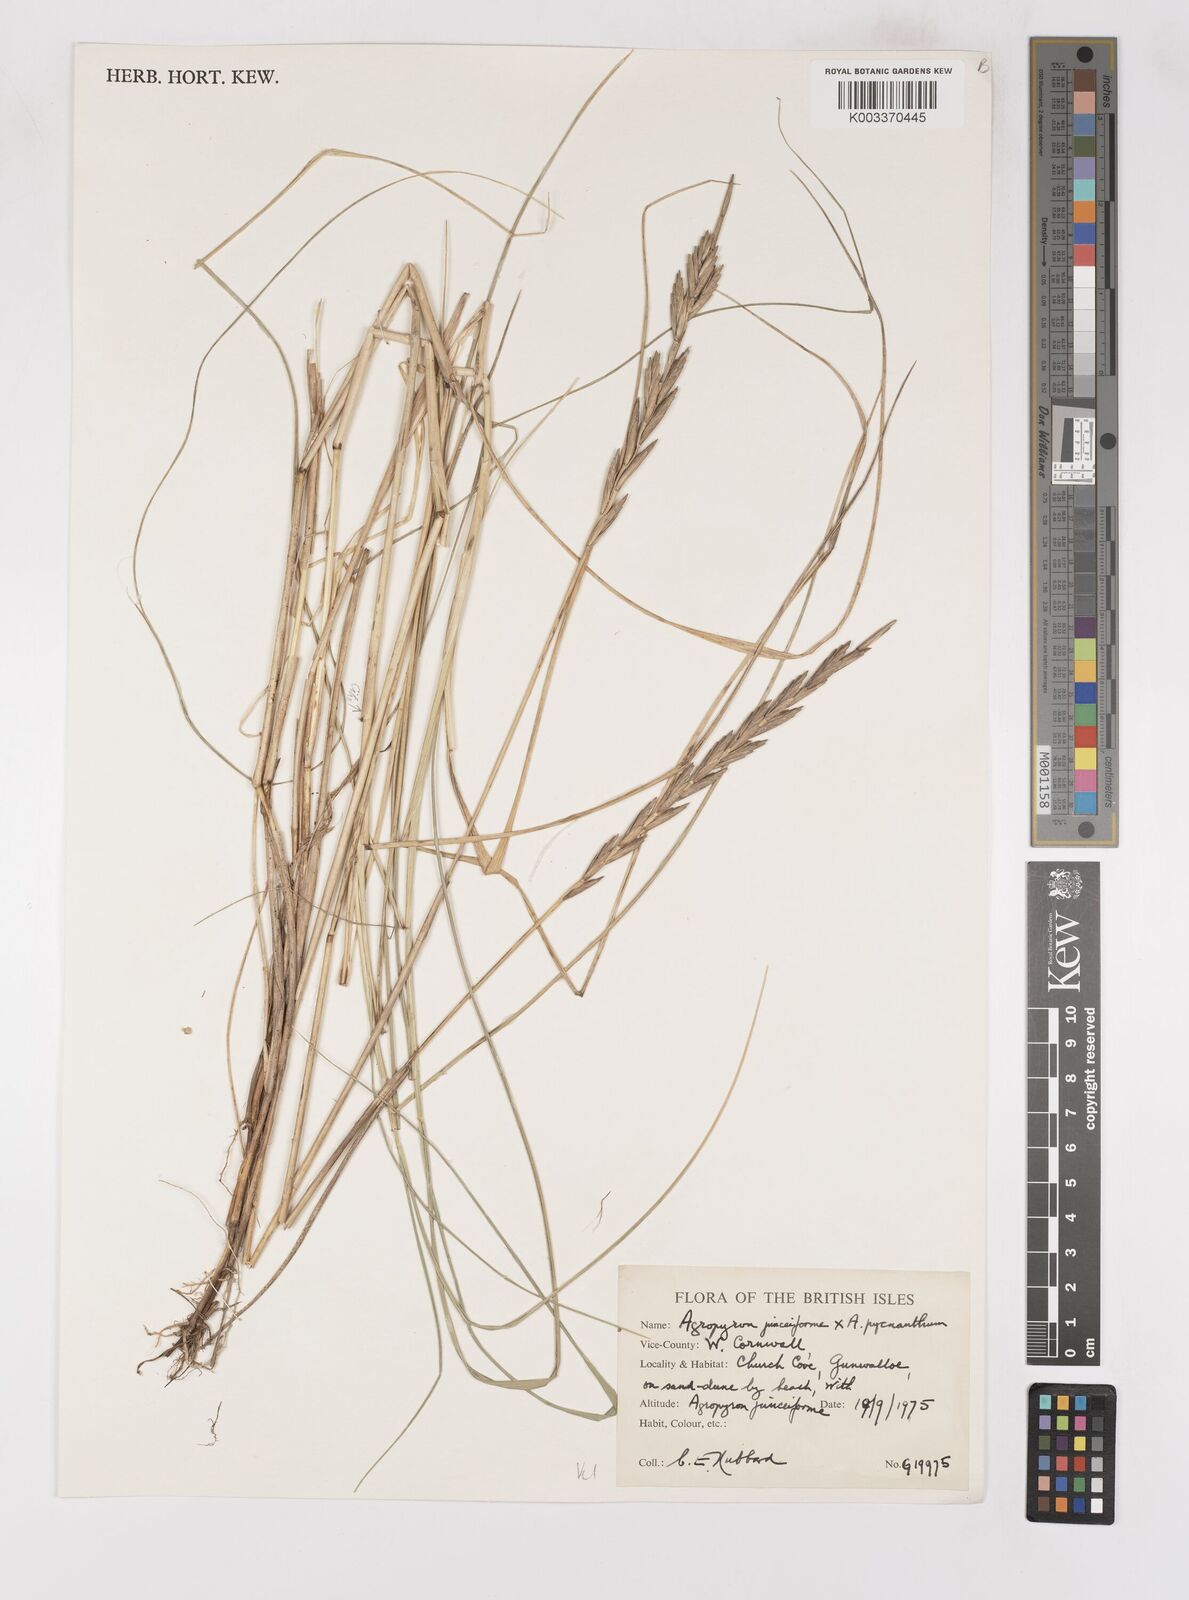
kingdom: Plantae
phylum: Tracheophyta
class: Liliopsida
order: Poales
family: Poaceae
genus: Thinoelymus
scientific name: Thinoelymus obtusiusculus
